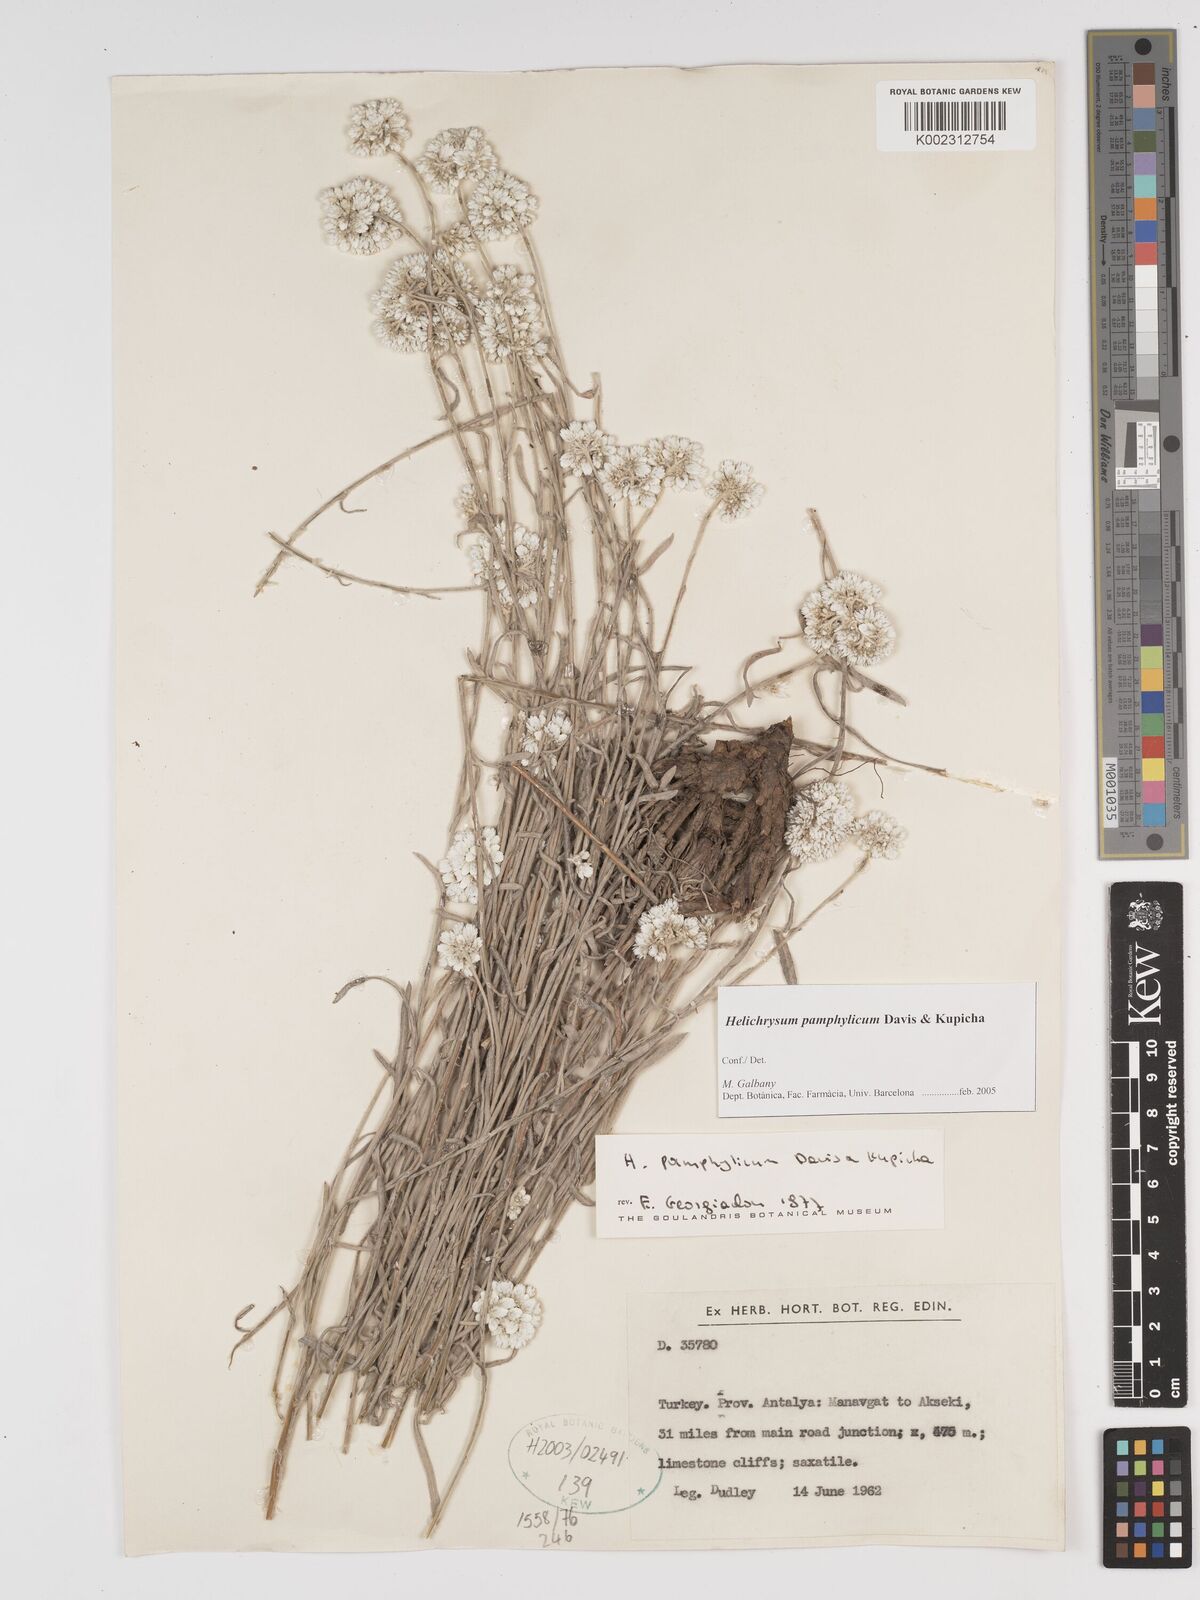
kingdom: Plantae
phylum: Tracheophyta
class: Magnoliopsida
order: Asterales
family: Asteraceae
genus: Helichrysum
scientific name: Helichrysum pamphylicum
